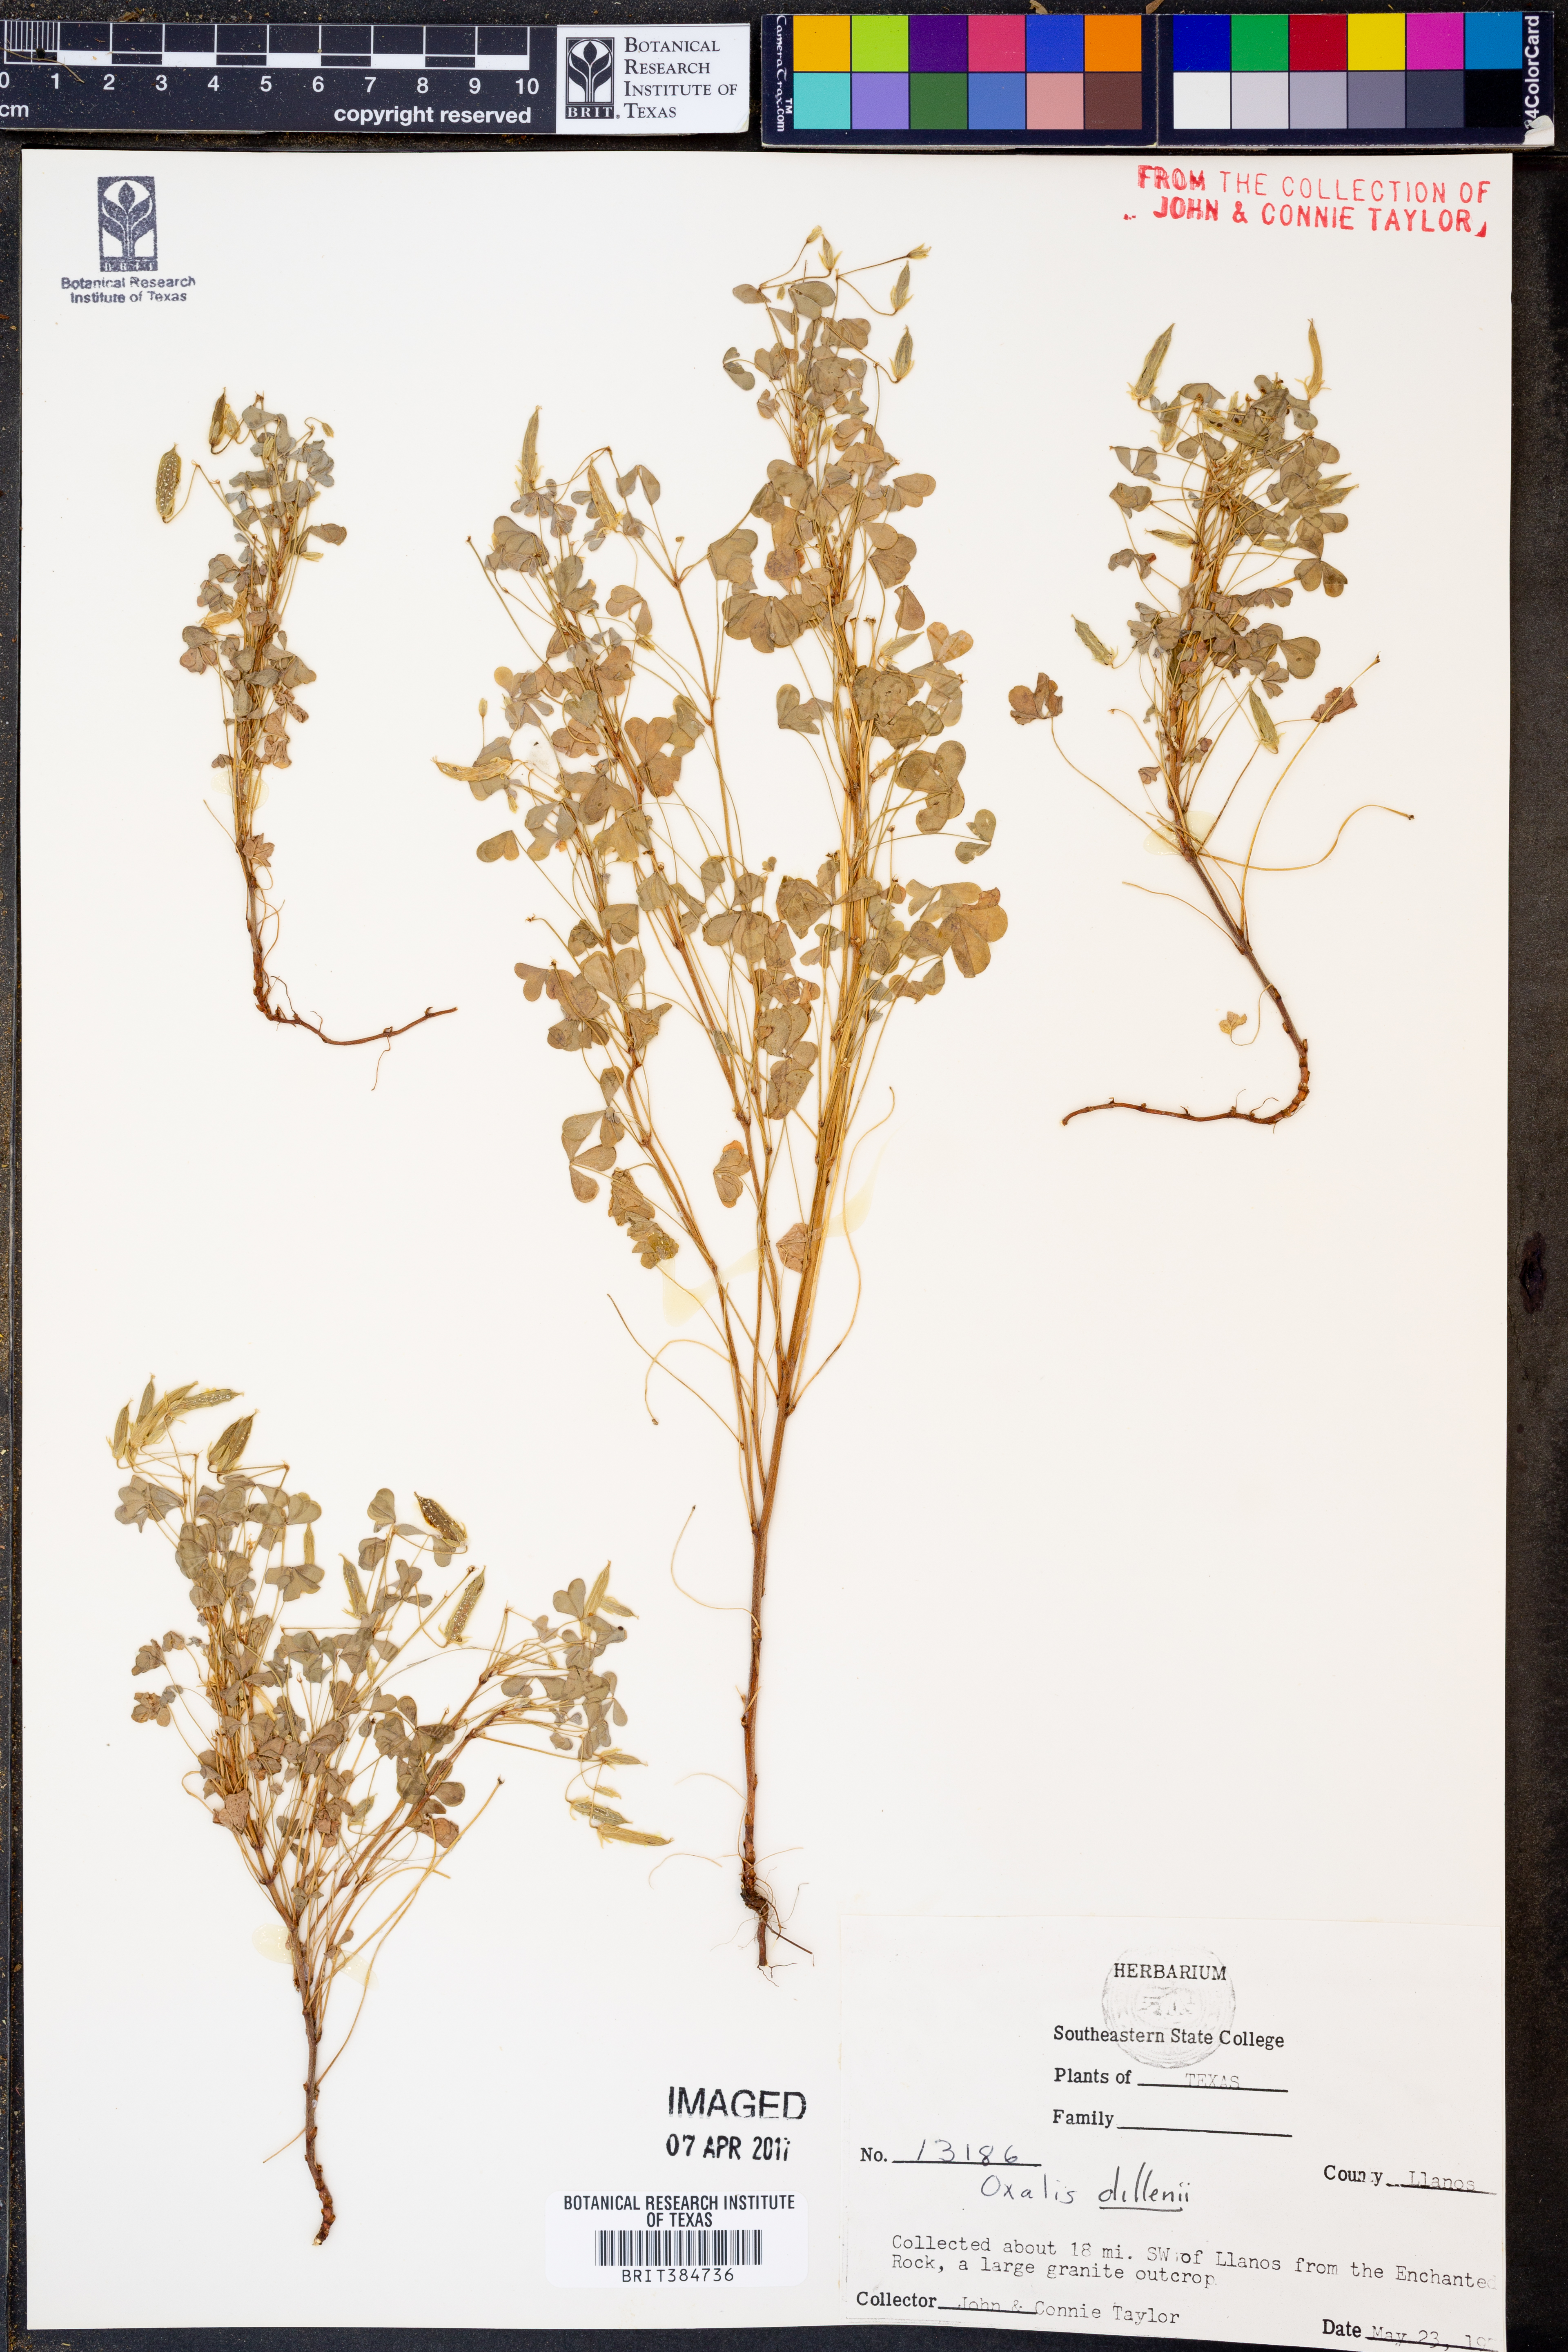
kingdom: Plantae
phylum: Tracheophyta
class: Magnoliopsida
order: Oxalidales
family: Oxalidaceae
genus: Oxalis
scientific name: Oxalis dillenii
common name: Sussex yellow-sorrel
